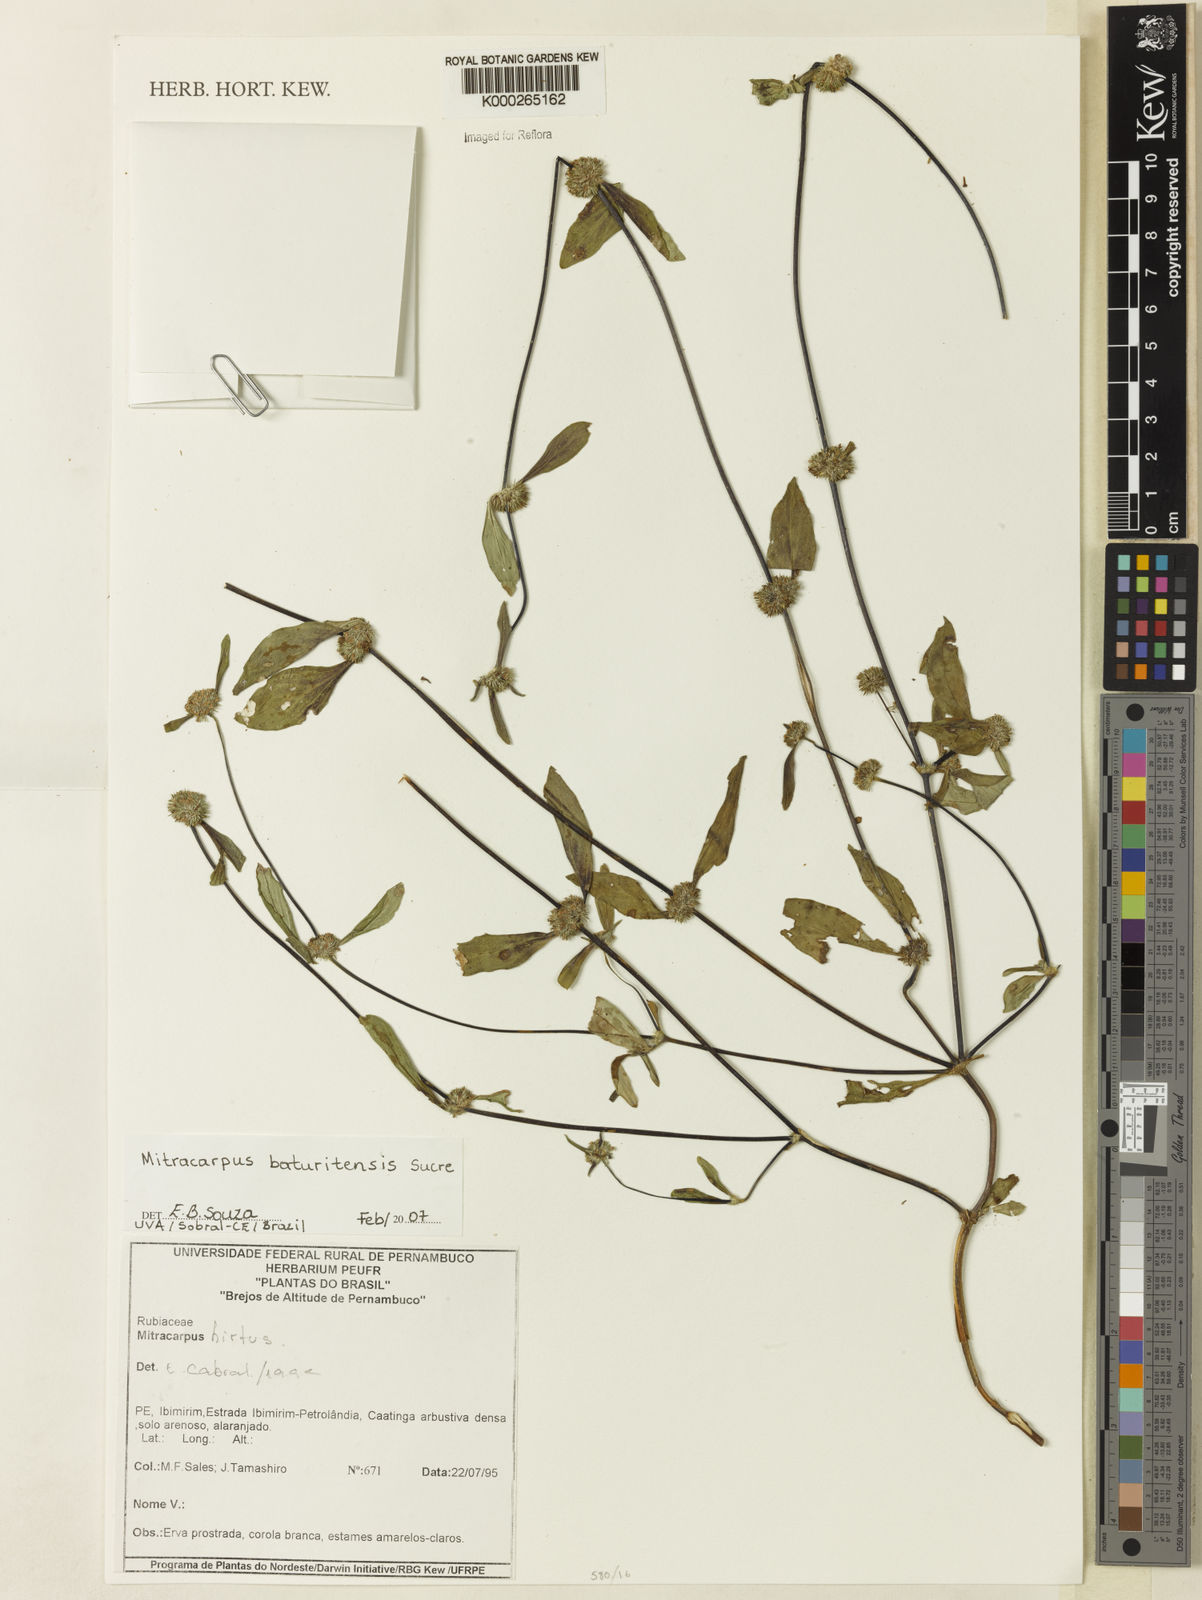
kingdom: Plantae
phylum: Tracheophyta
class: Magnoliopsida
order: Gentianales
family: Rubiaceae
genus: Mitracarpus
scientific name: Mitracarpus baturitensis
